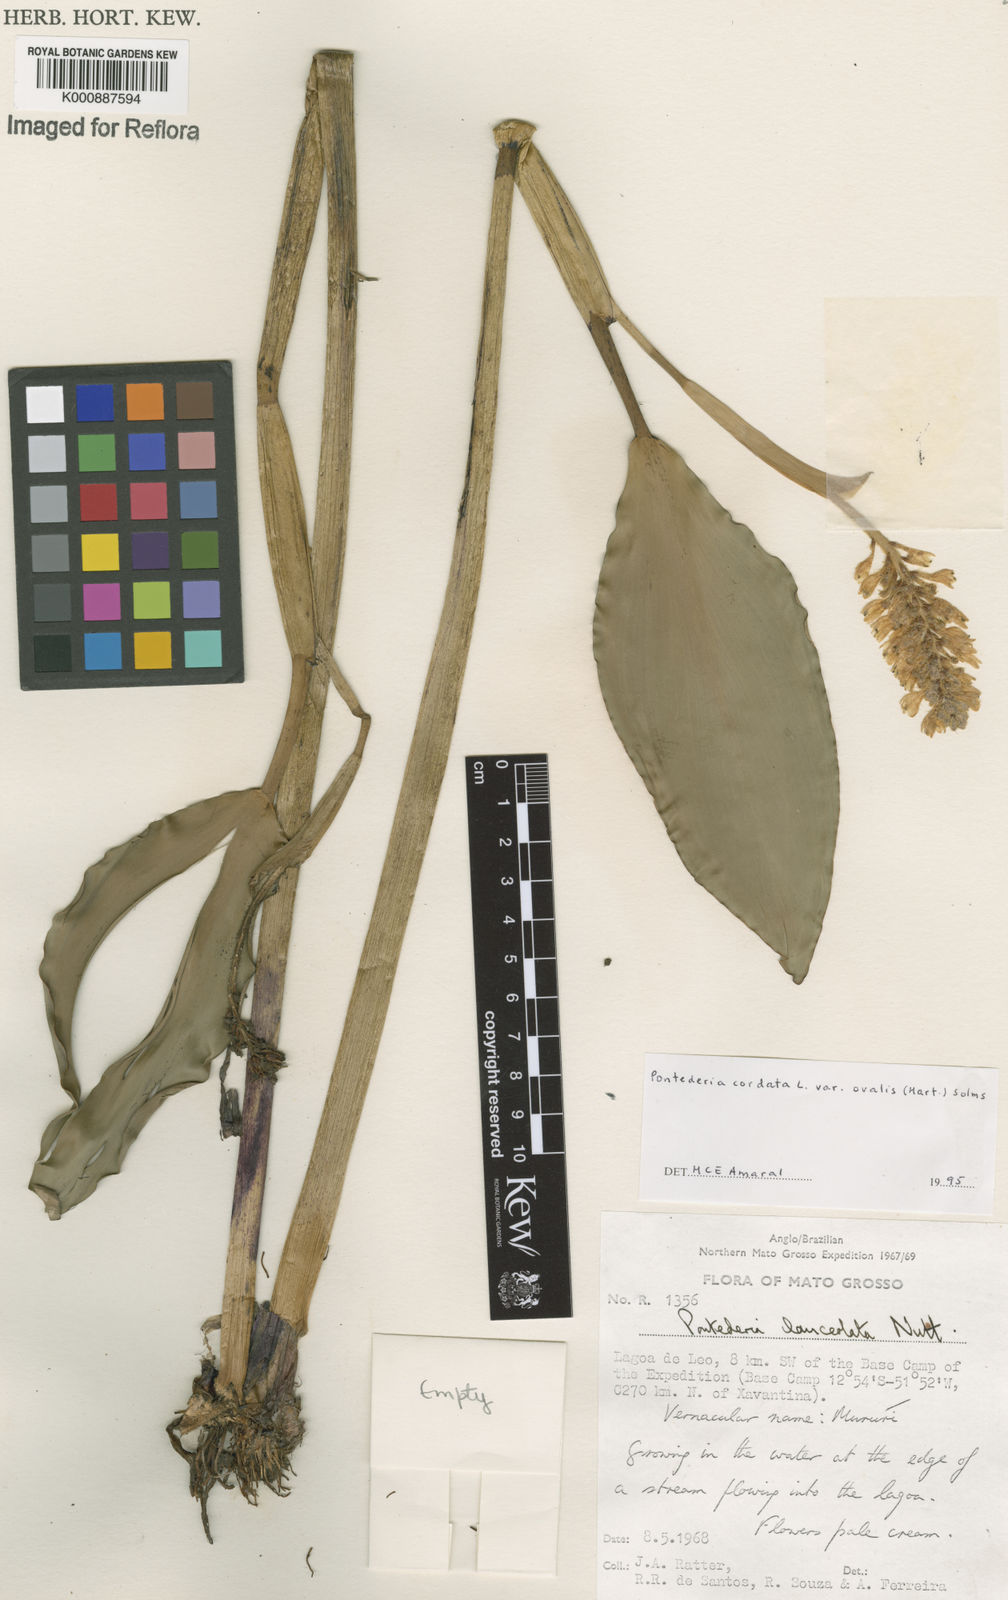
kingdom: Plantae
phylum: Tracheophyta
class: Liliopsida
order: Commelinales
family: Pontederiaceae
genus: Pontederia
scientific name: Pontederia cordata
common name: Pickerelweed
